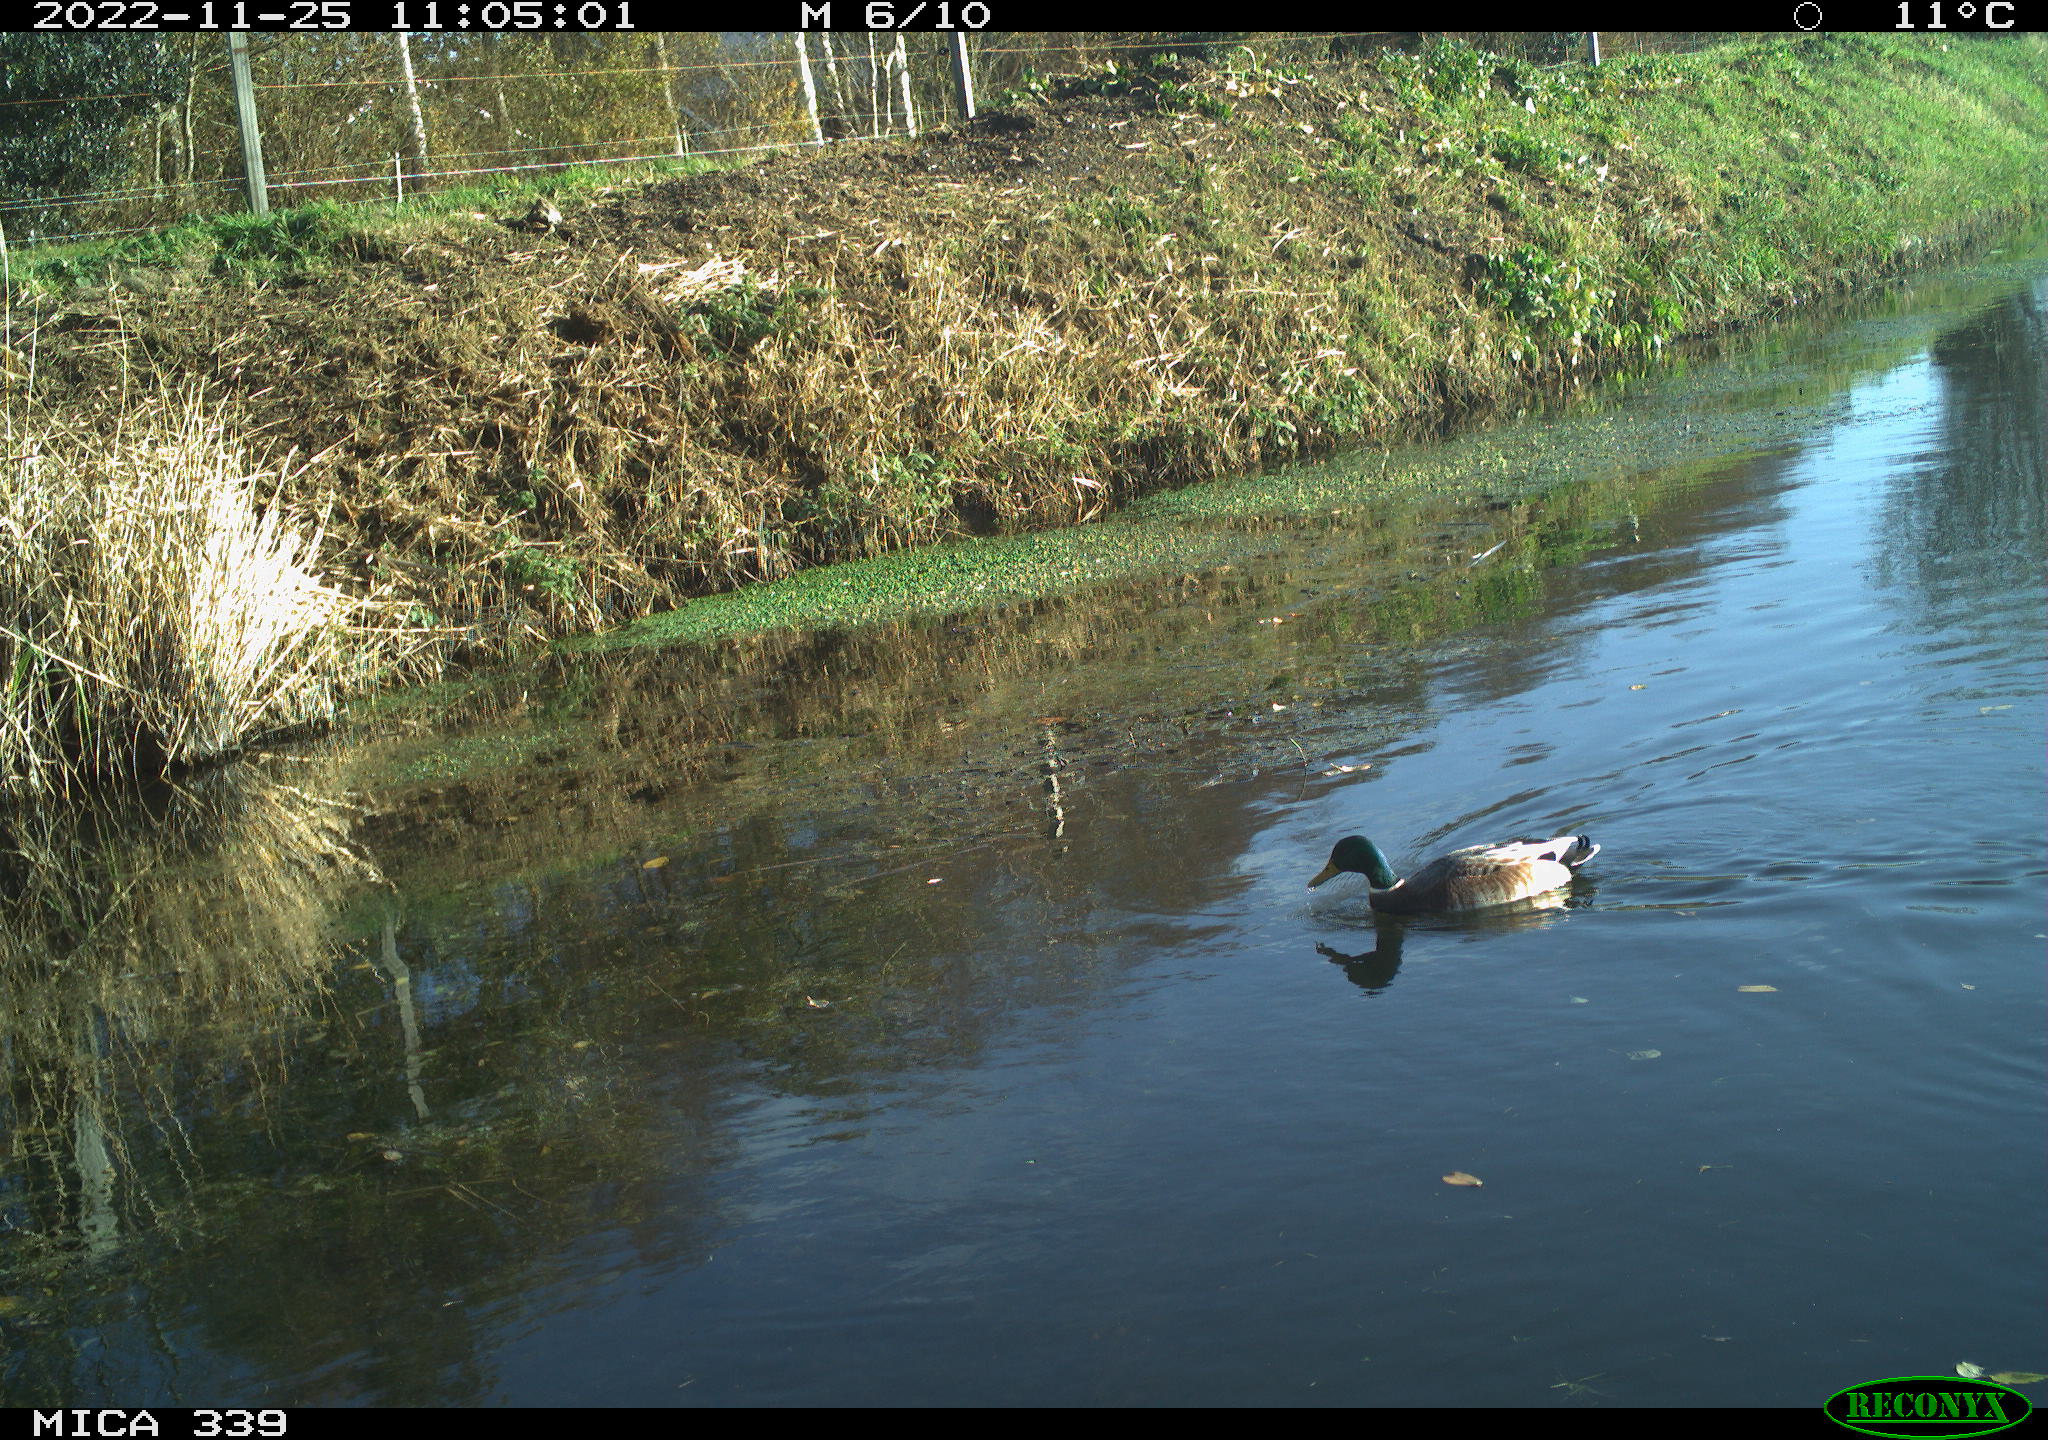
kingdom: Animalia
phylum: Chordata
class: Aves
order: Anseriformes
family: Anatidae
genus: Anas
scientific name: Anas
